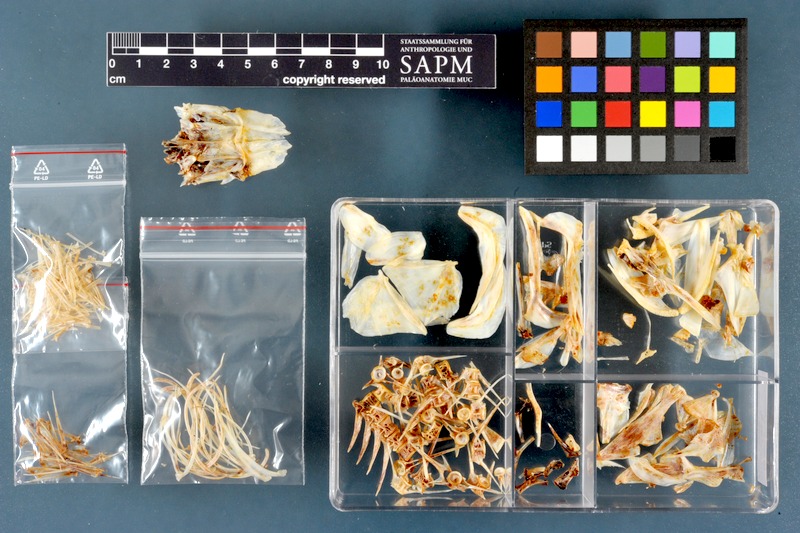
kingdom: Animalia
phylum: Chordata
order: Perciformes
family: Centrarchidae
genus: Micropterus
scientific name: Micropterus dolomieu
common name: Smallmouth bass
